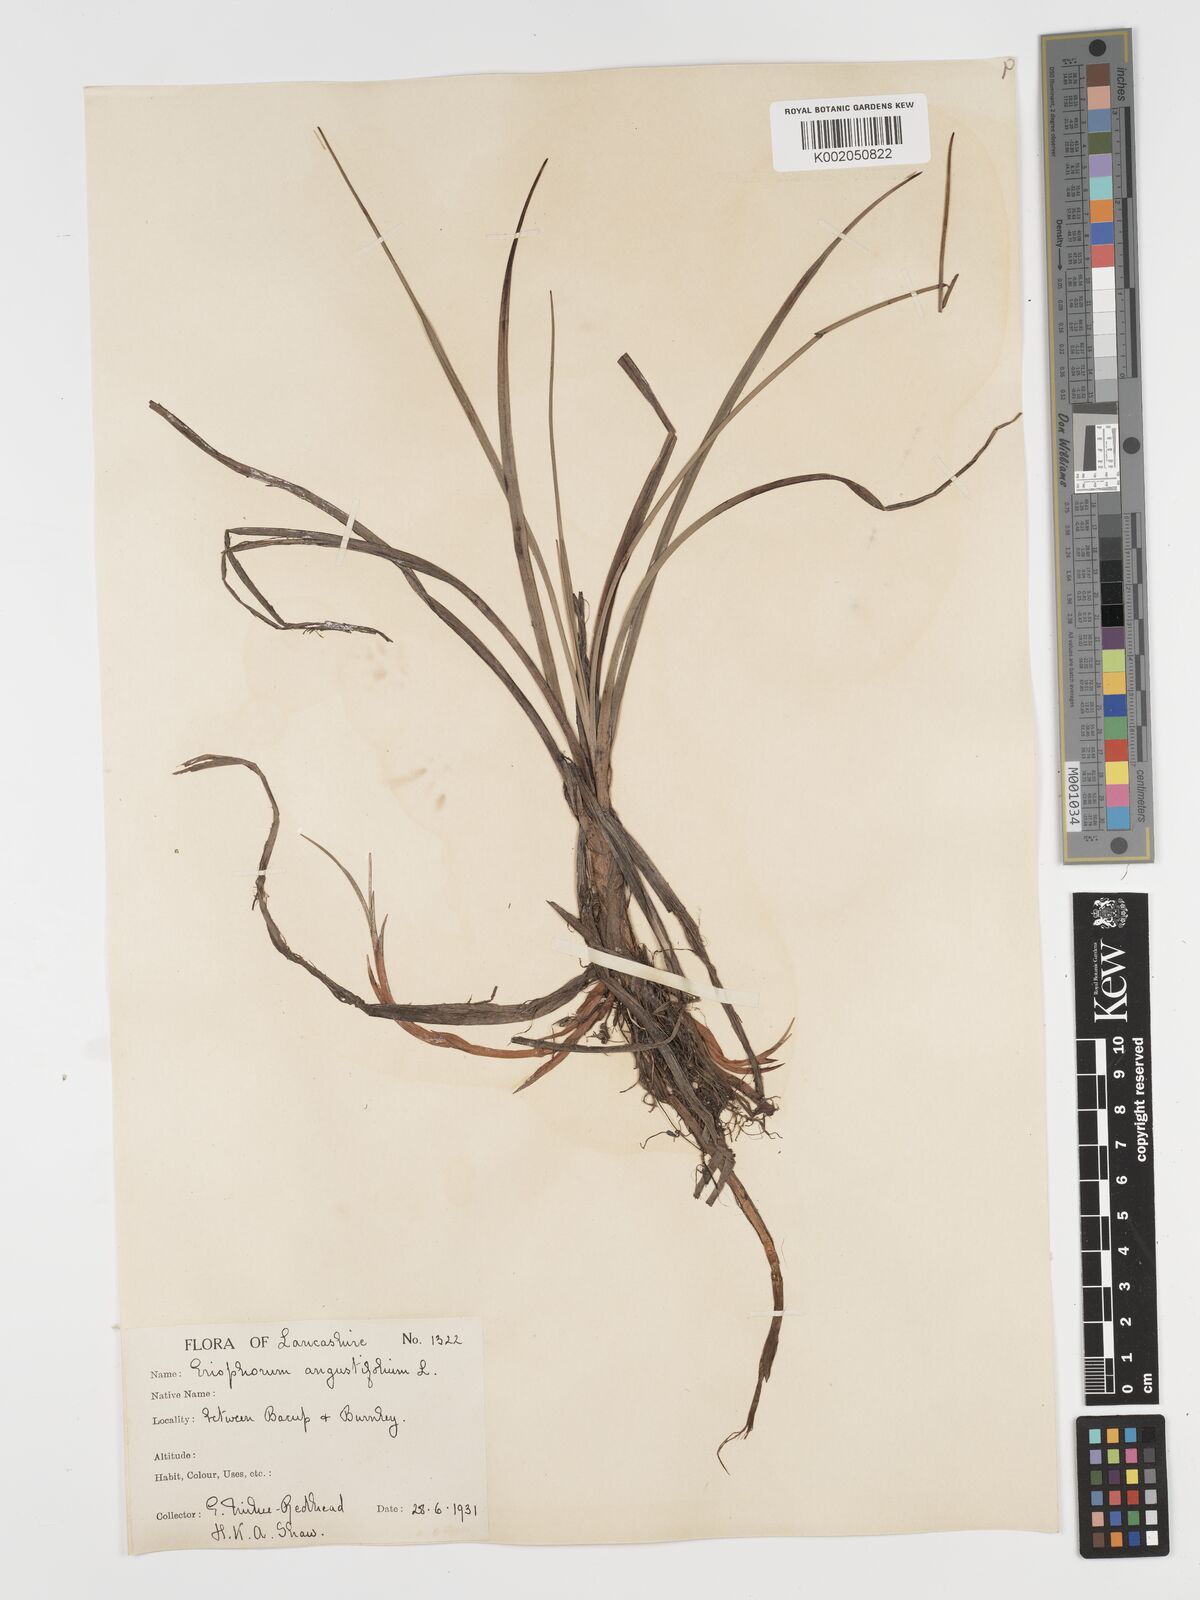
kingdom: Plantae
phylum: Tracheophyta
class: Liliopsida
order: Poales
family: Cyperaceae
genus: Eriophorum
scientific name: Eriophorum angustifolium
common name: Common cottongrass
